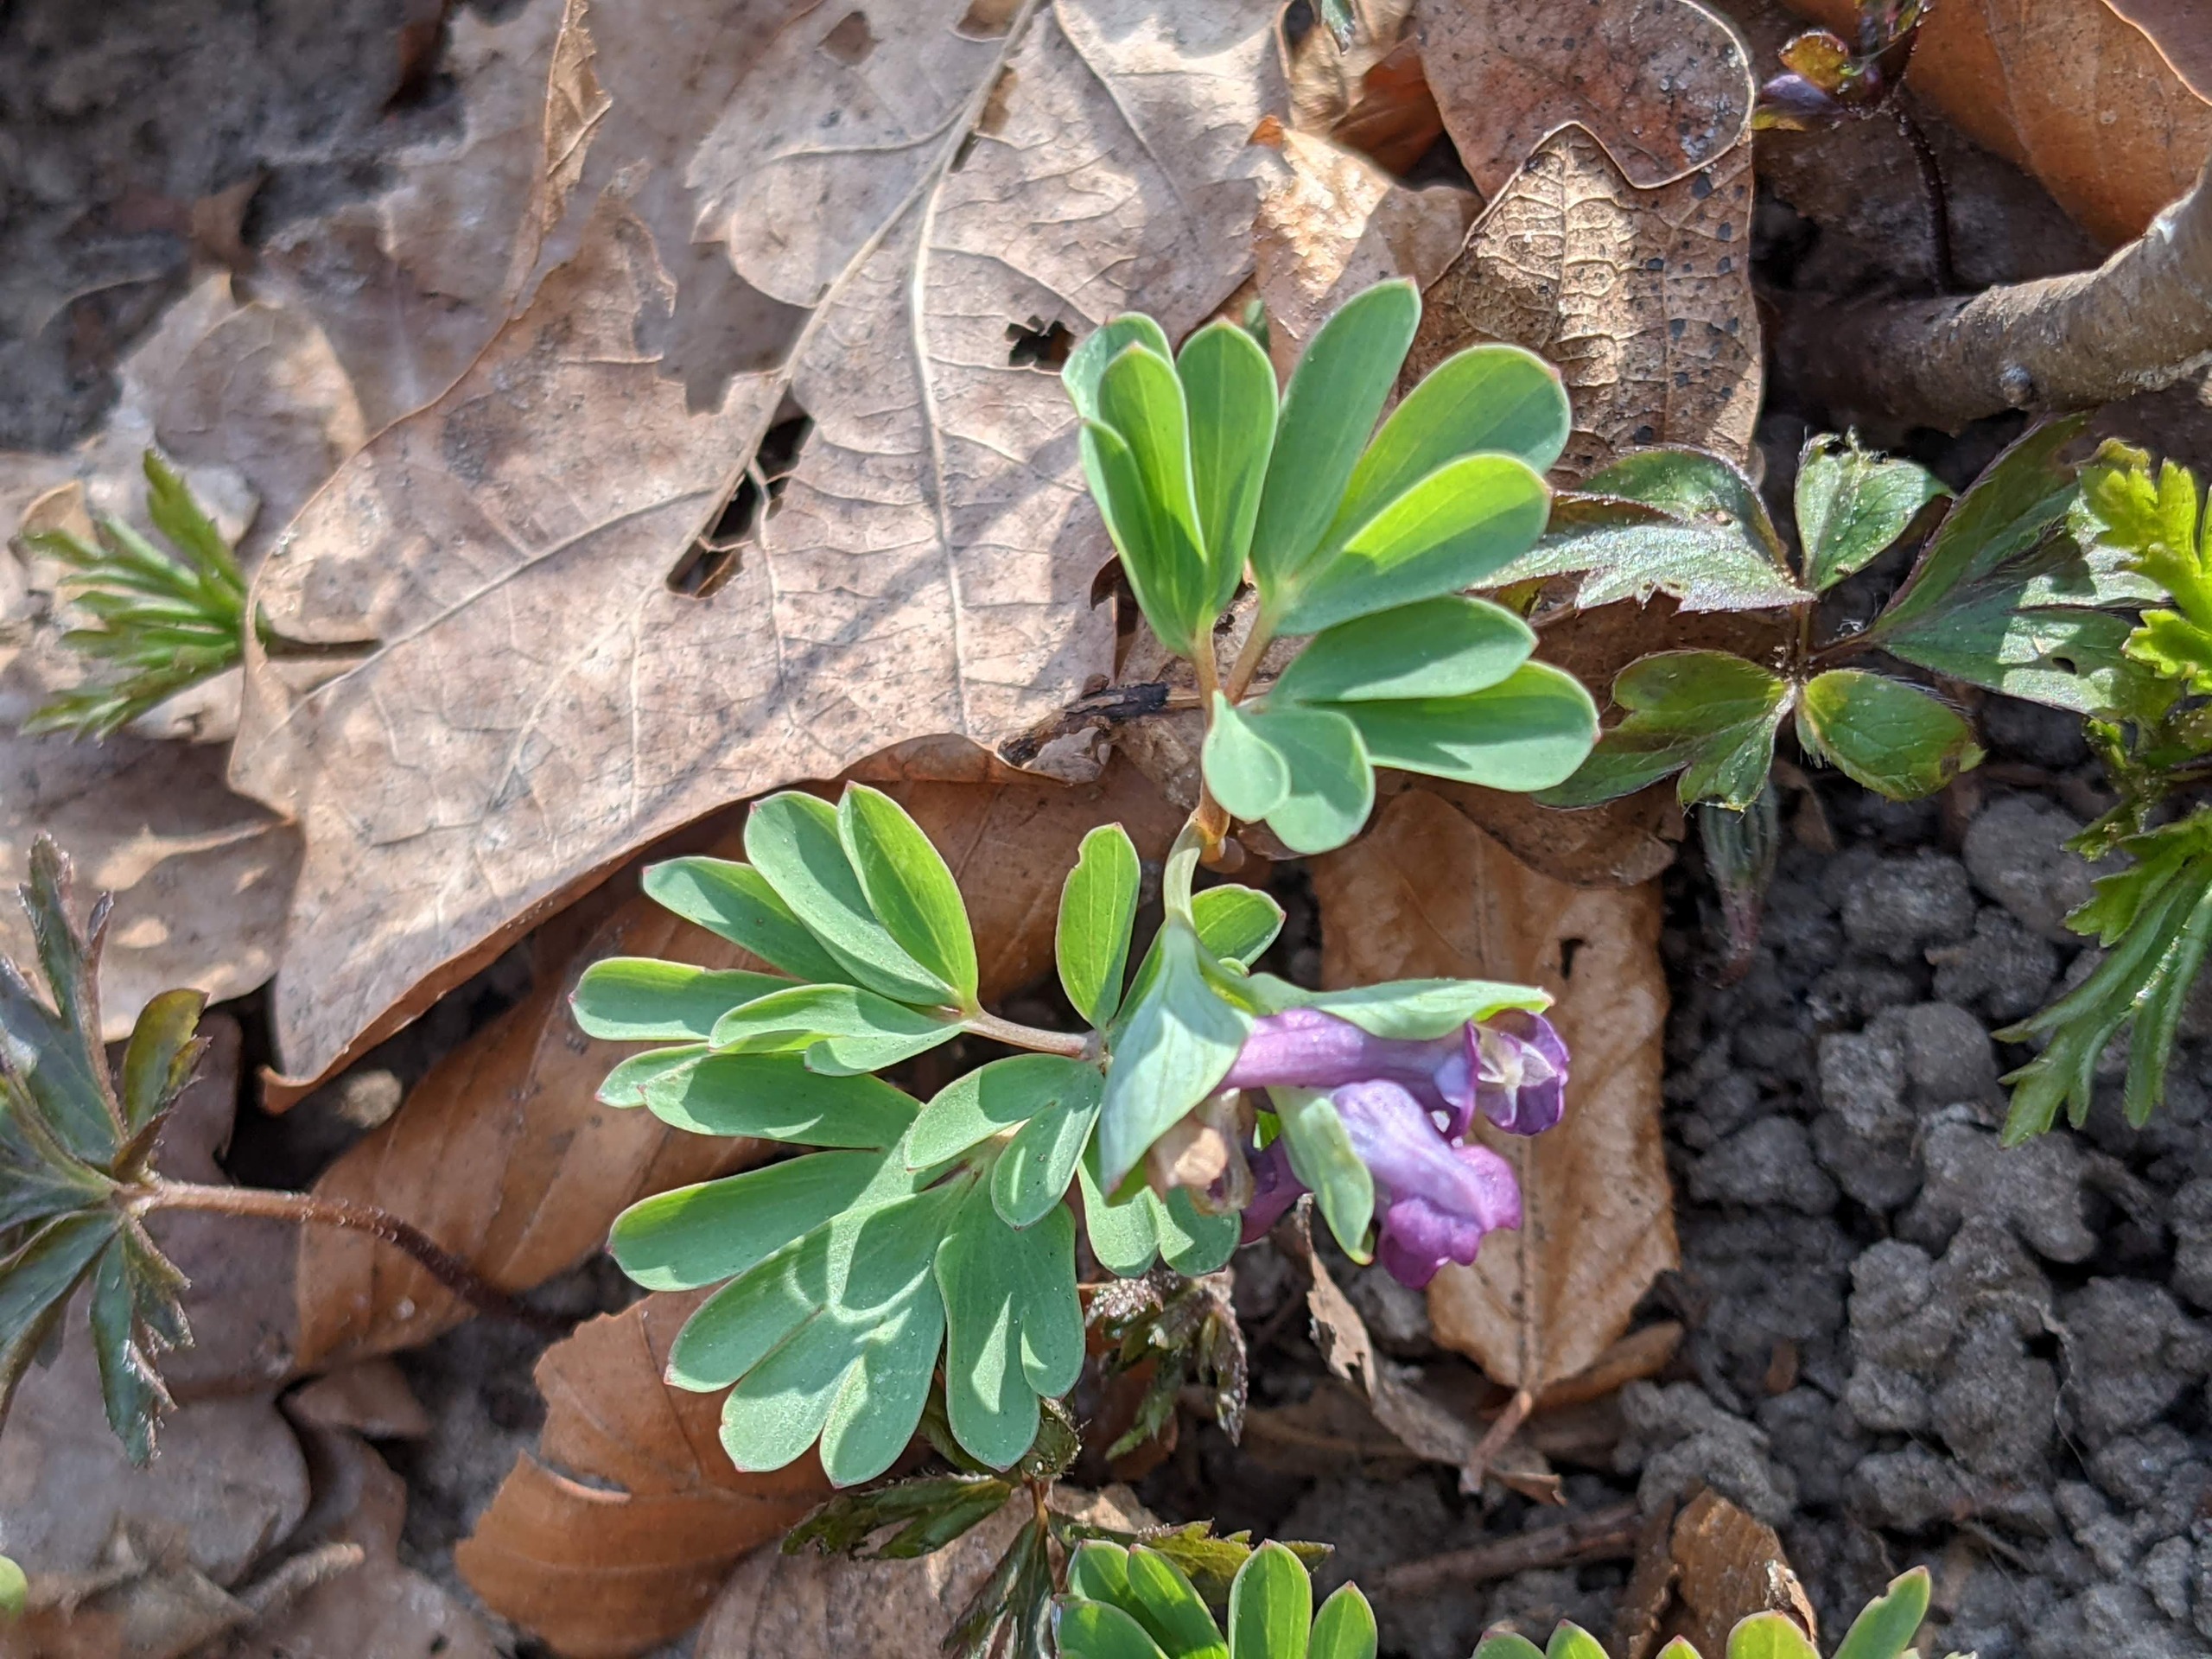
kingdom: Plantae
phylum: Tracheophyta
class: Magnoliopsida
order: Ranunculales
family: Papaveraceae
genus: Corydalis
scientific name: Corydalis intermedia
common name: Liden lærkespore
